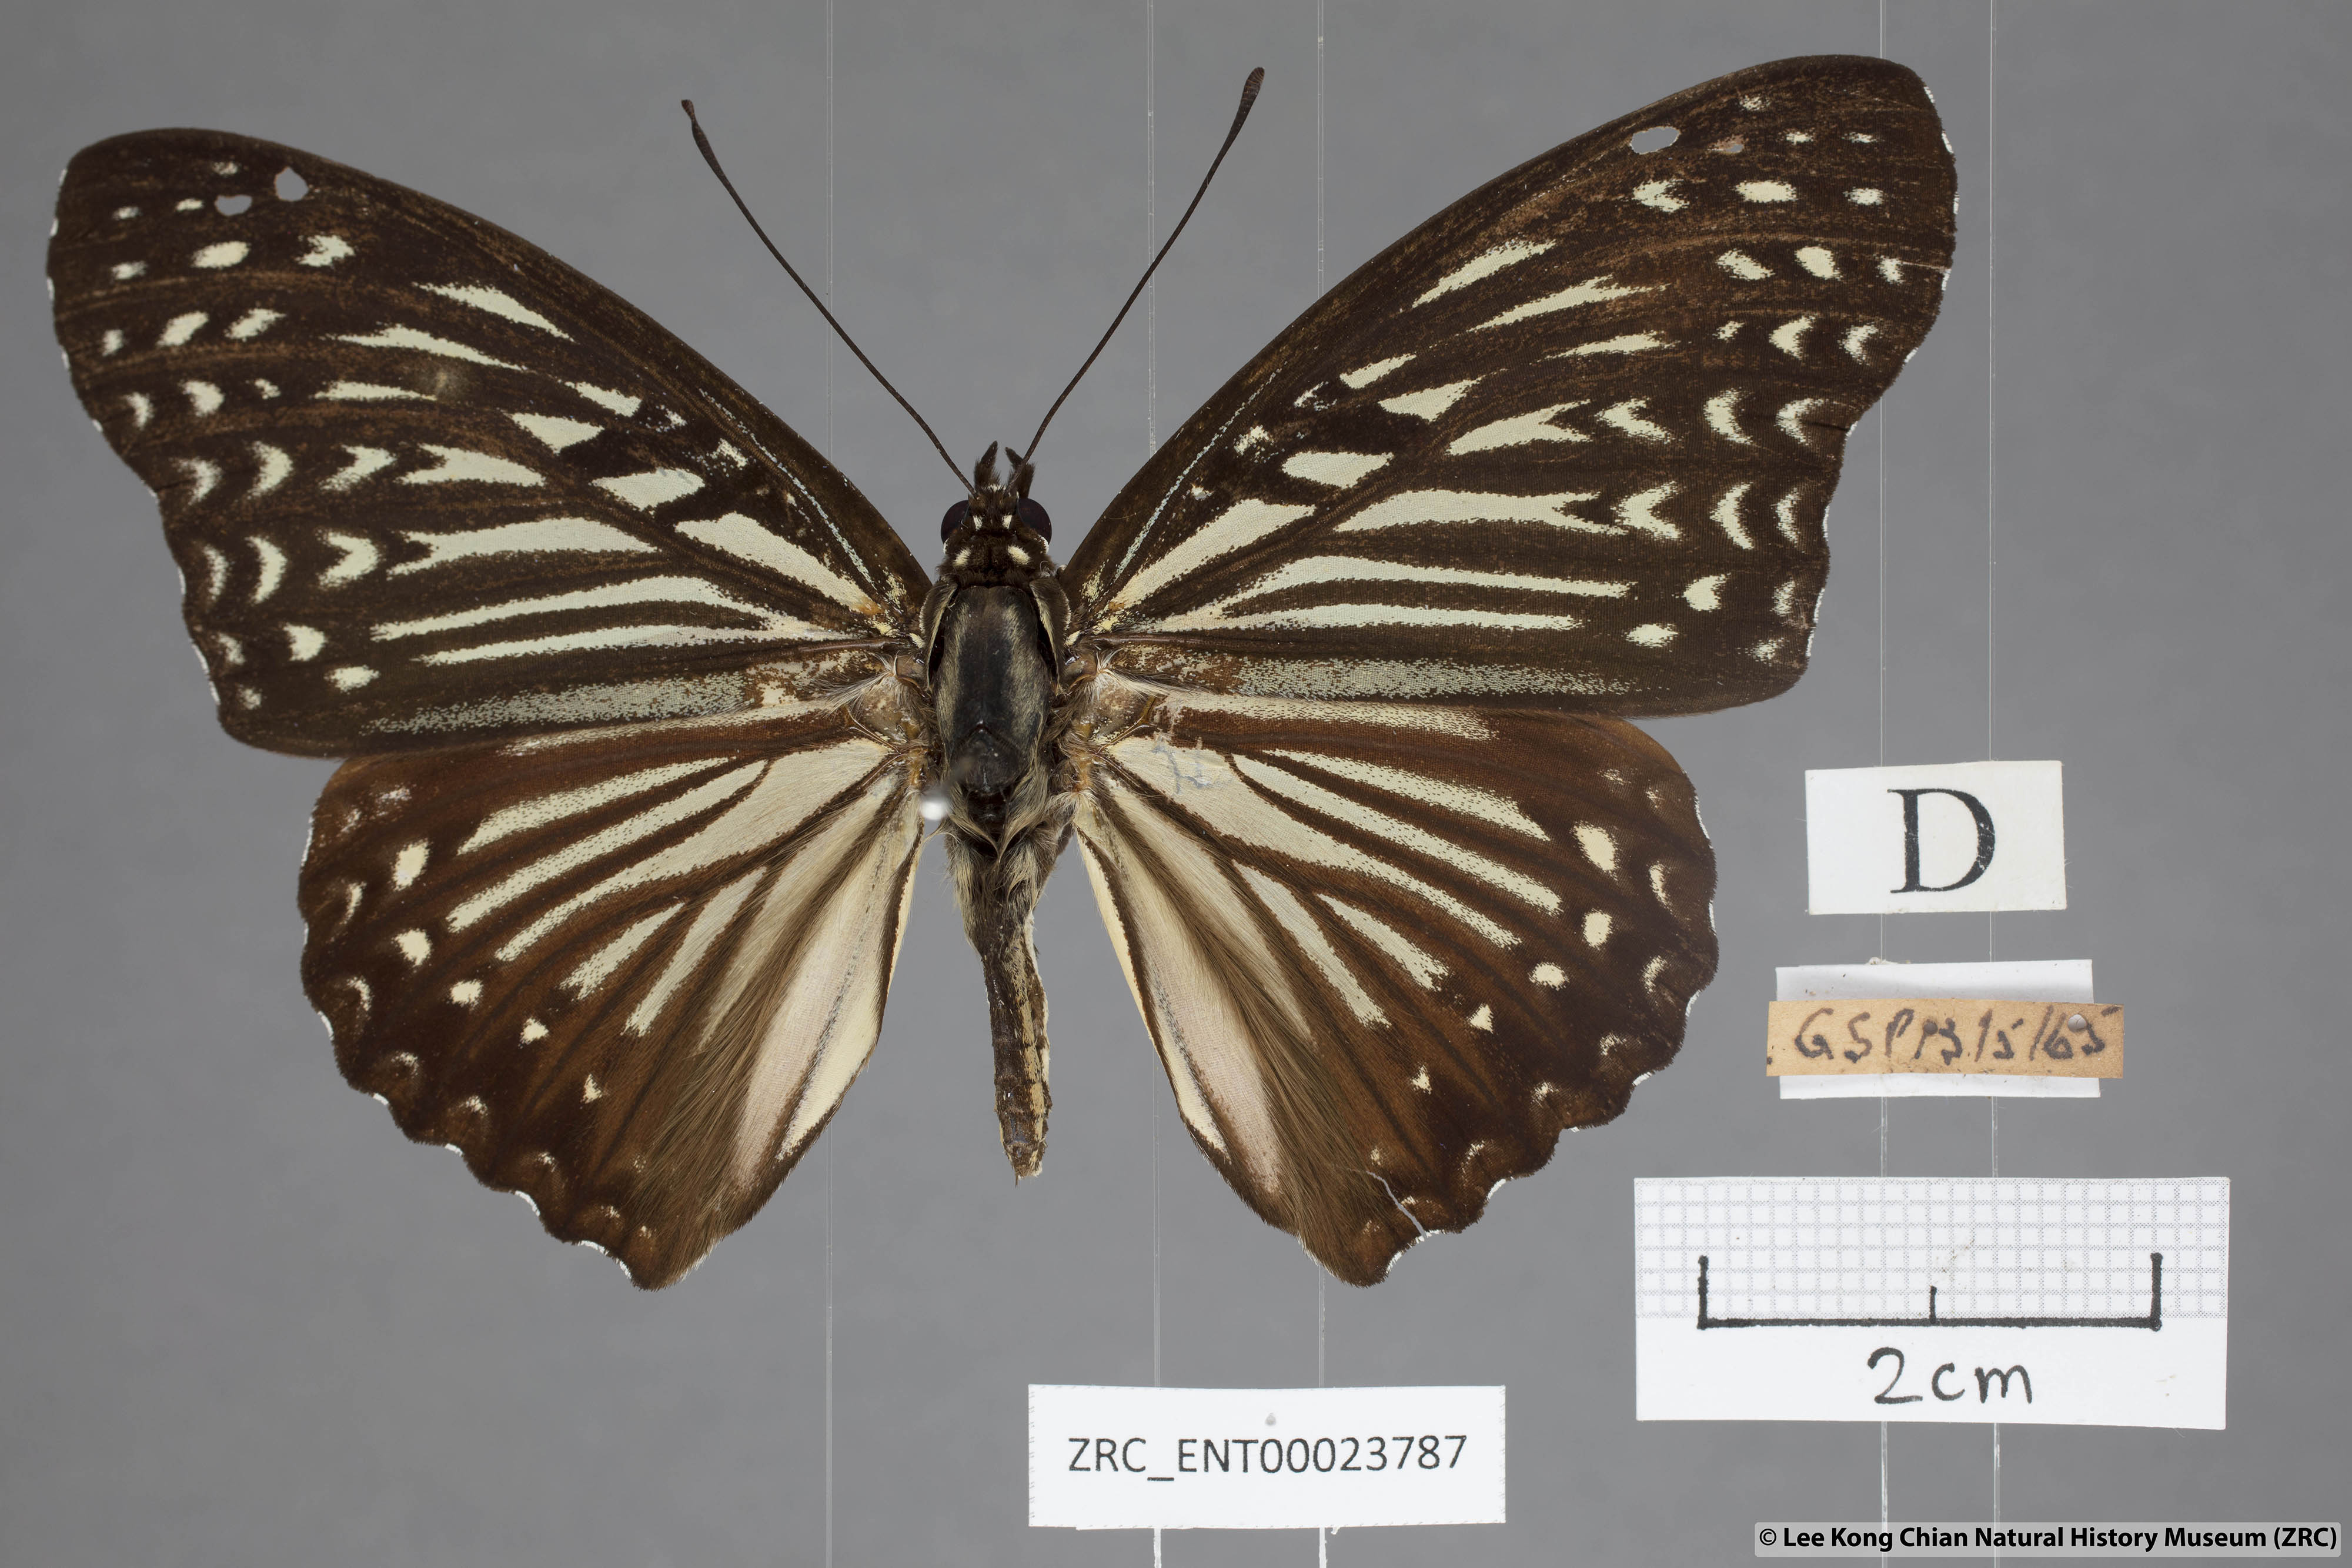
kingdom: Animalia
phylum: Arthropoda
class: Insecta
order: Lepidoptera
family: Nymphalidae
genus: Hestinalis
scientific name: Hestinalis nama
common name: Circe
